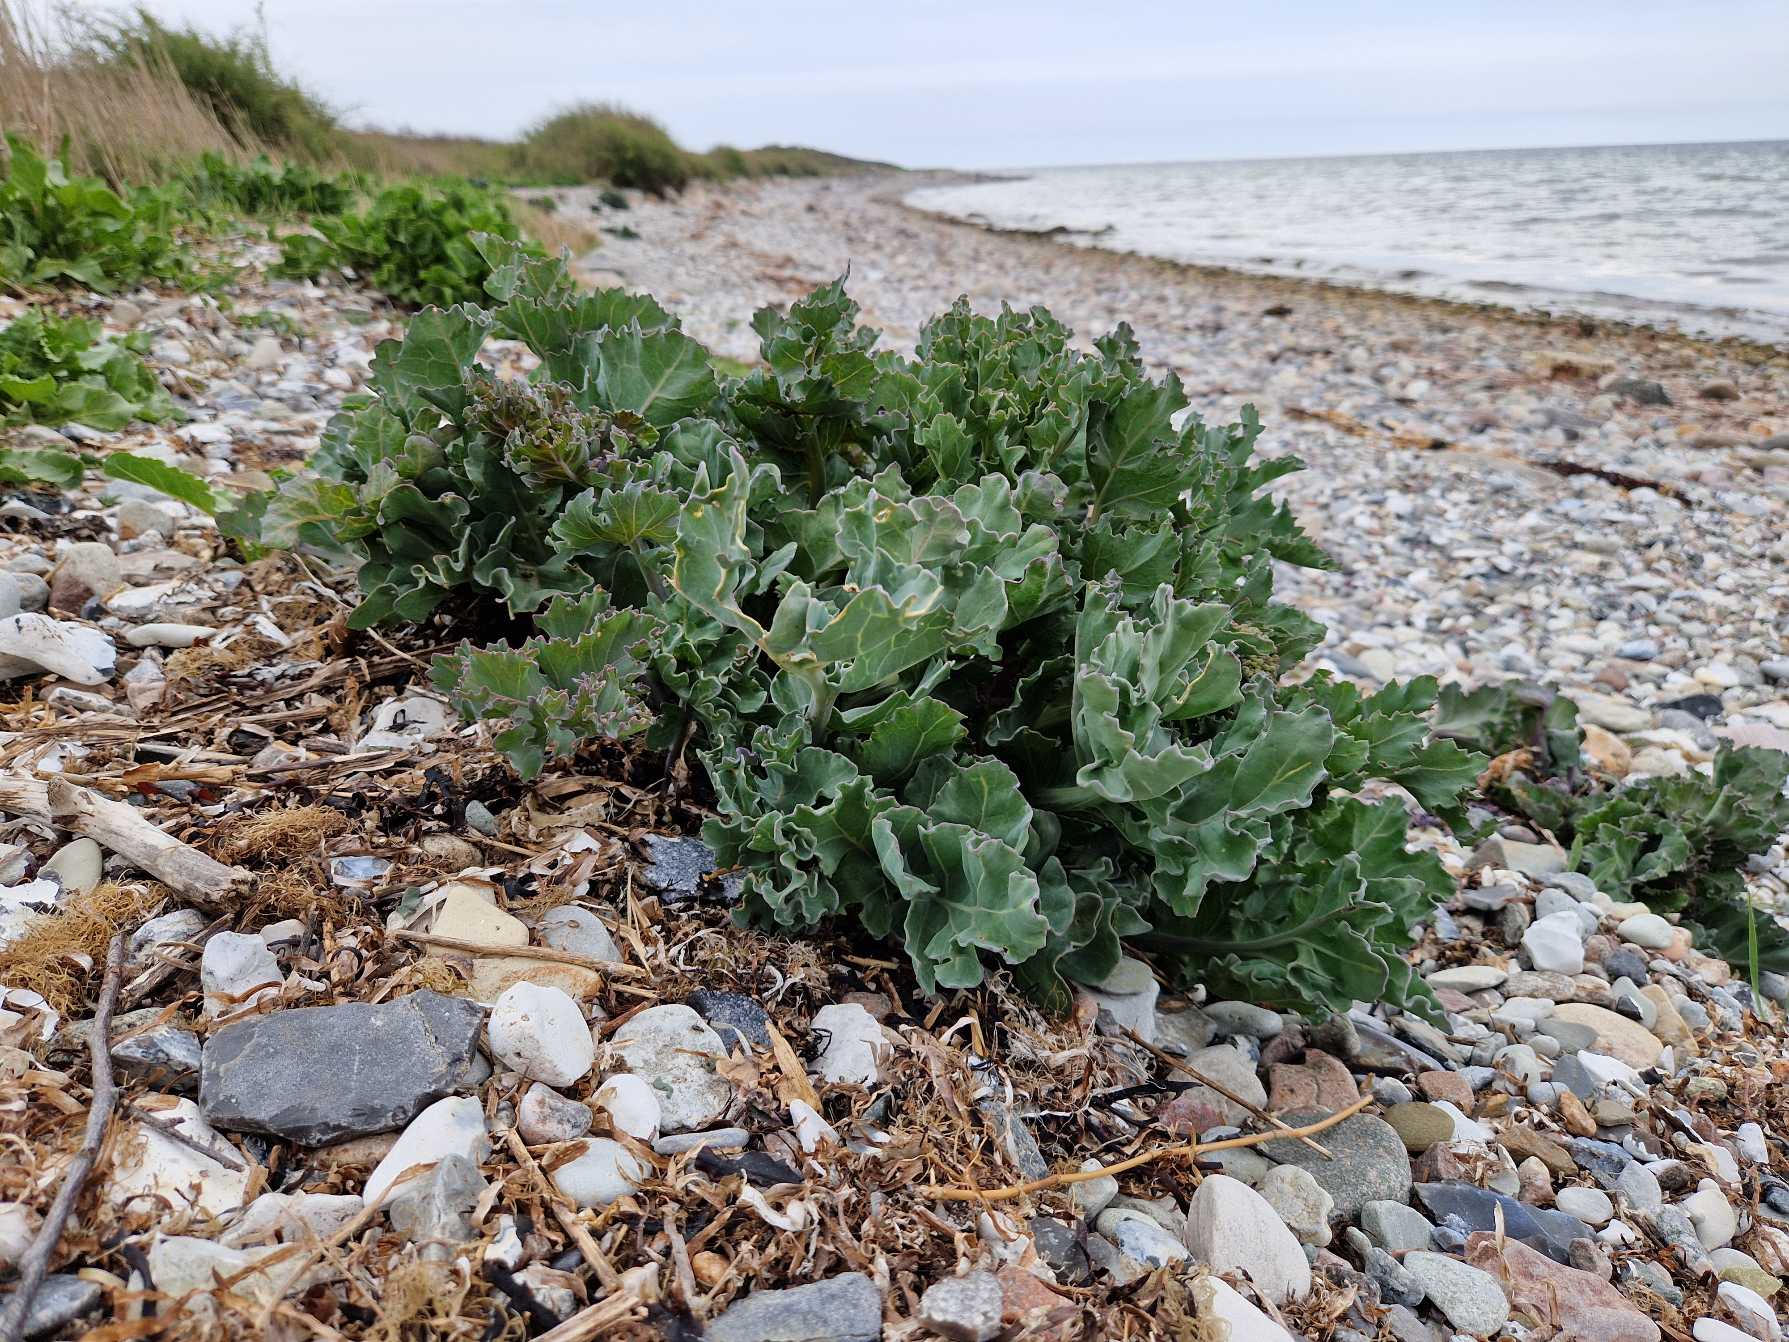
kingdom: Plantae
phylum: Tracheophyta
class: Magnoliopsida
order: Brassicales
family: Brassicaceae
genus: Crambe
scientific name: Crambe maritima
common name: Strandkål
